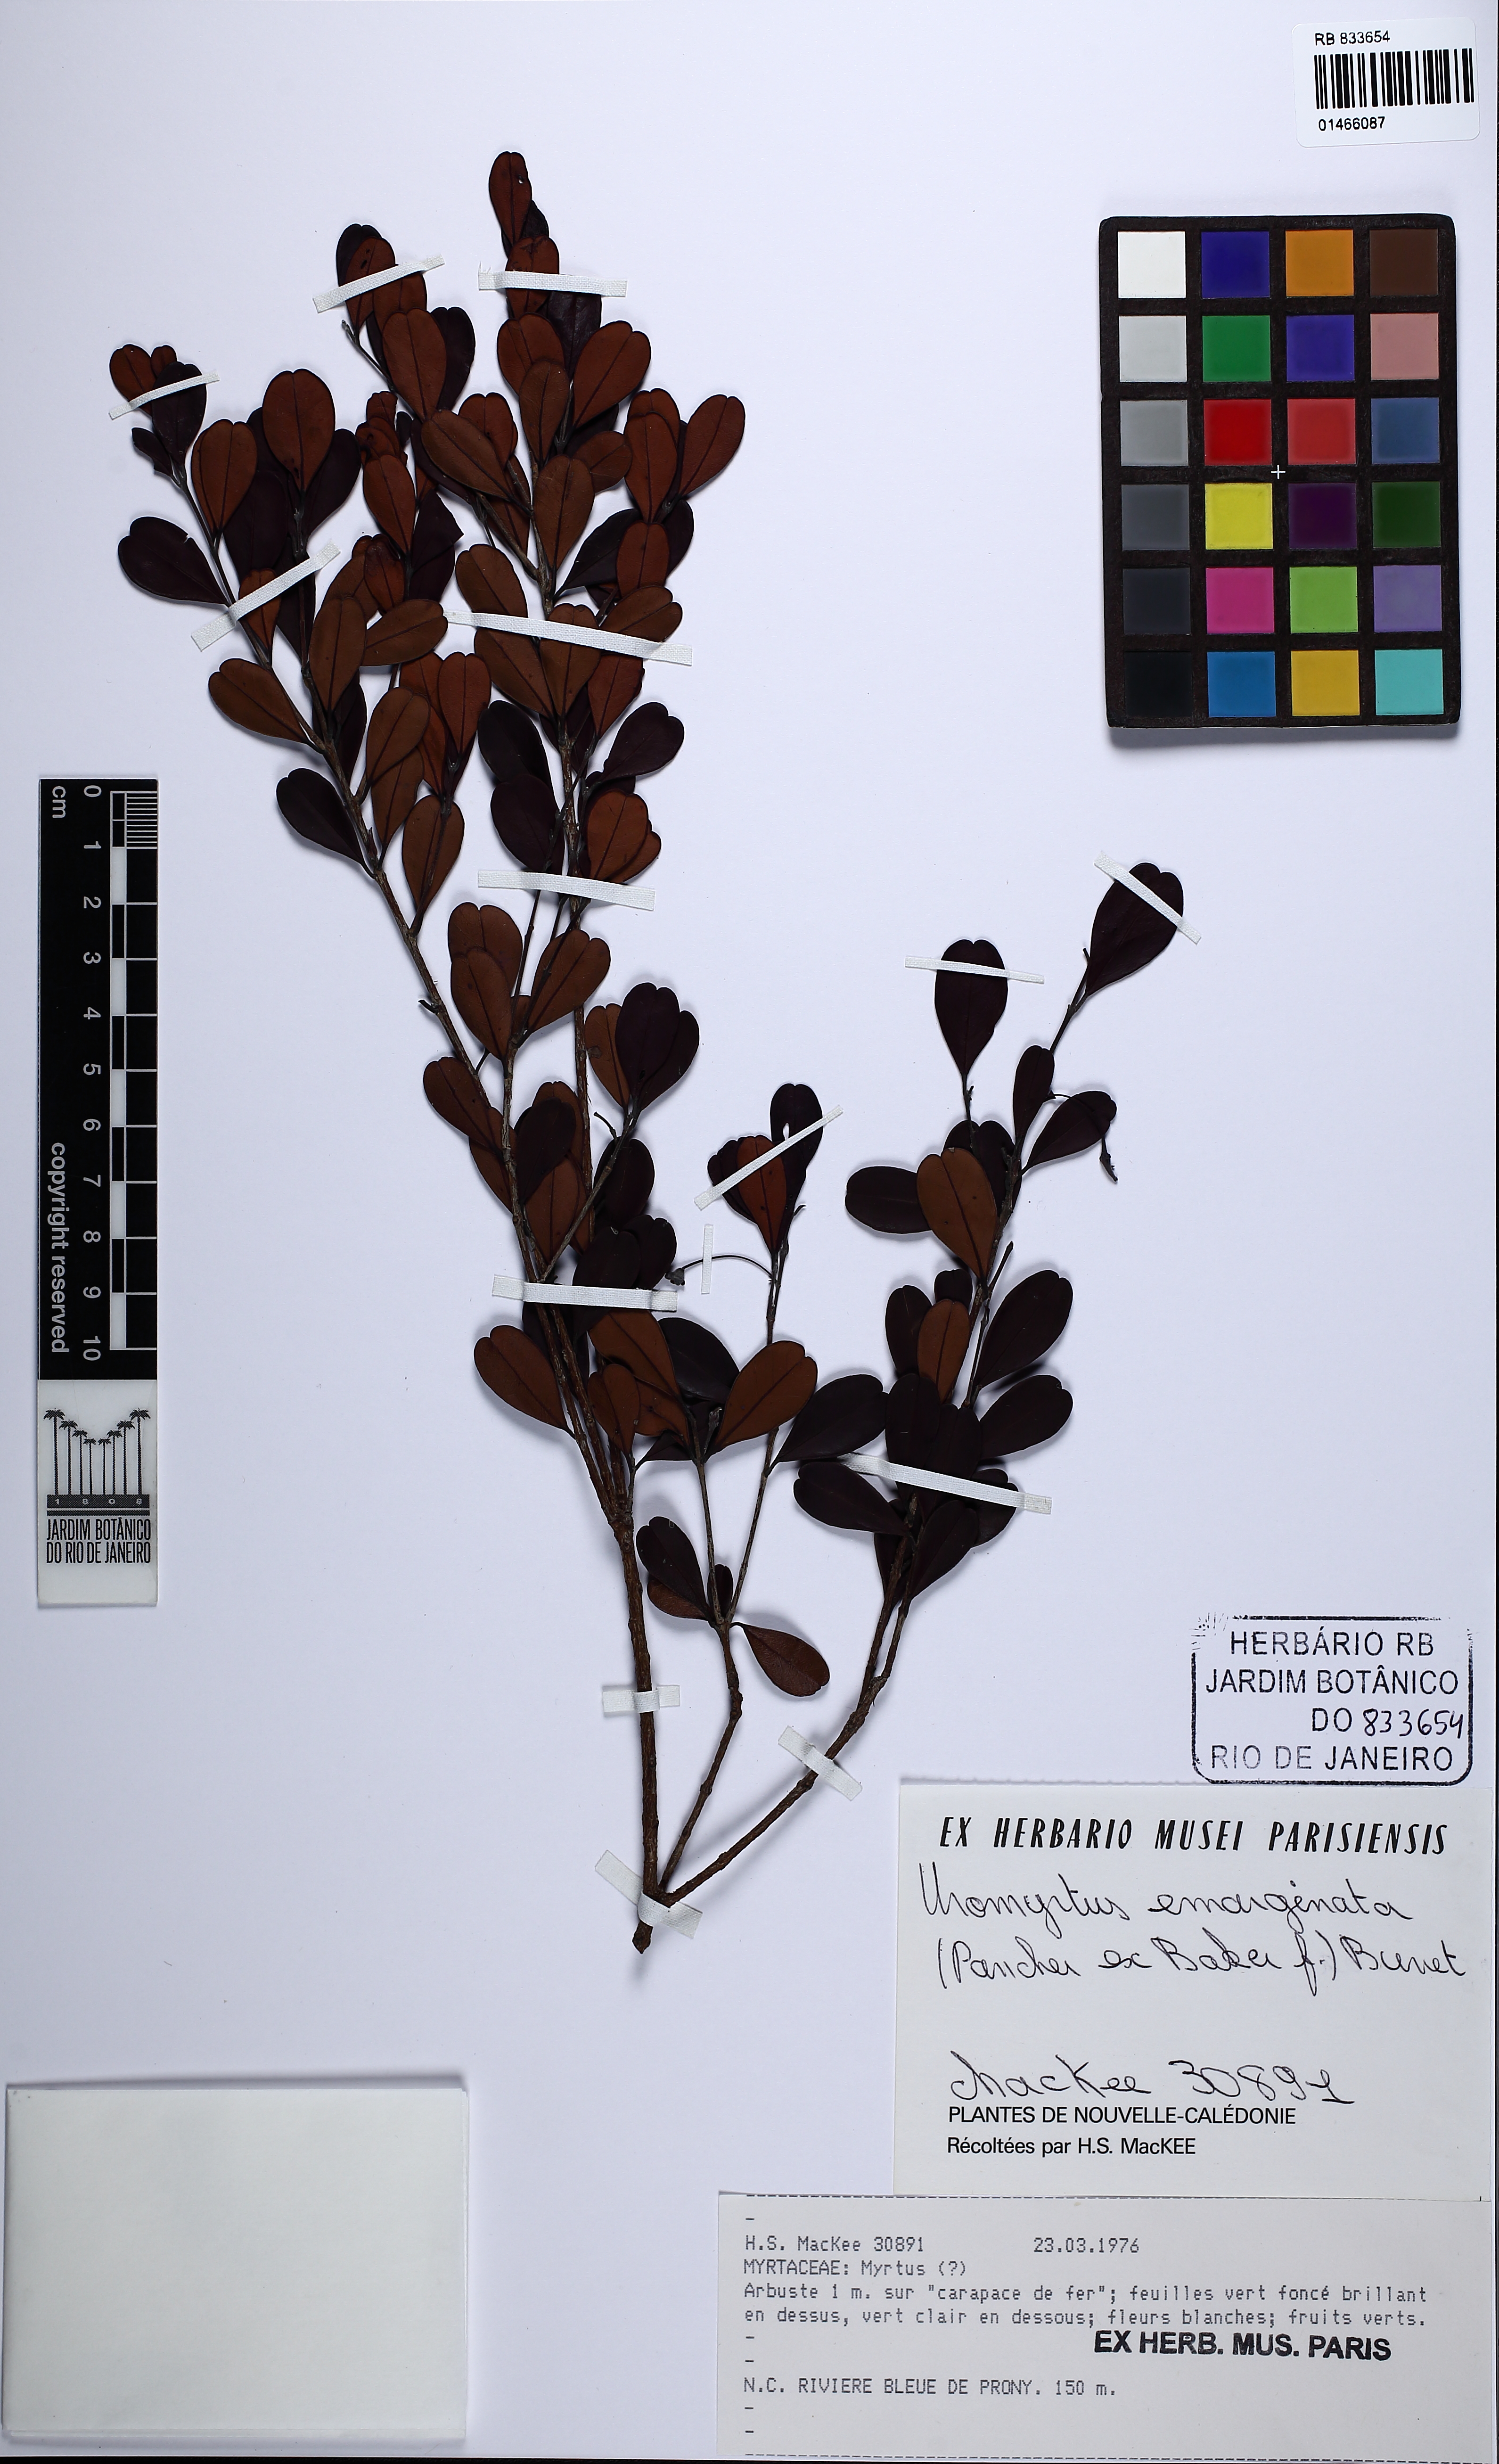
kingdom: Plantae
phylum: Tracheophyta
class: Magnoliopsida
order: Myrtales
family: Myrtaceae
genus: Uromyrtus
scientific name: Uromyrtus emarginatus
